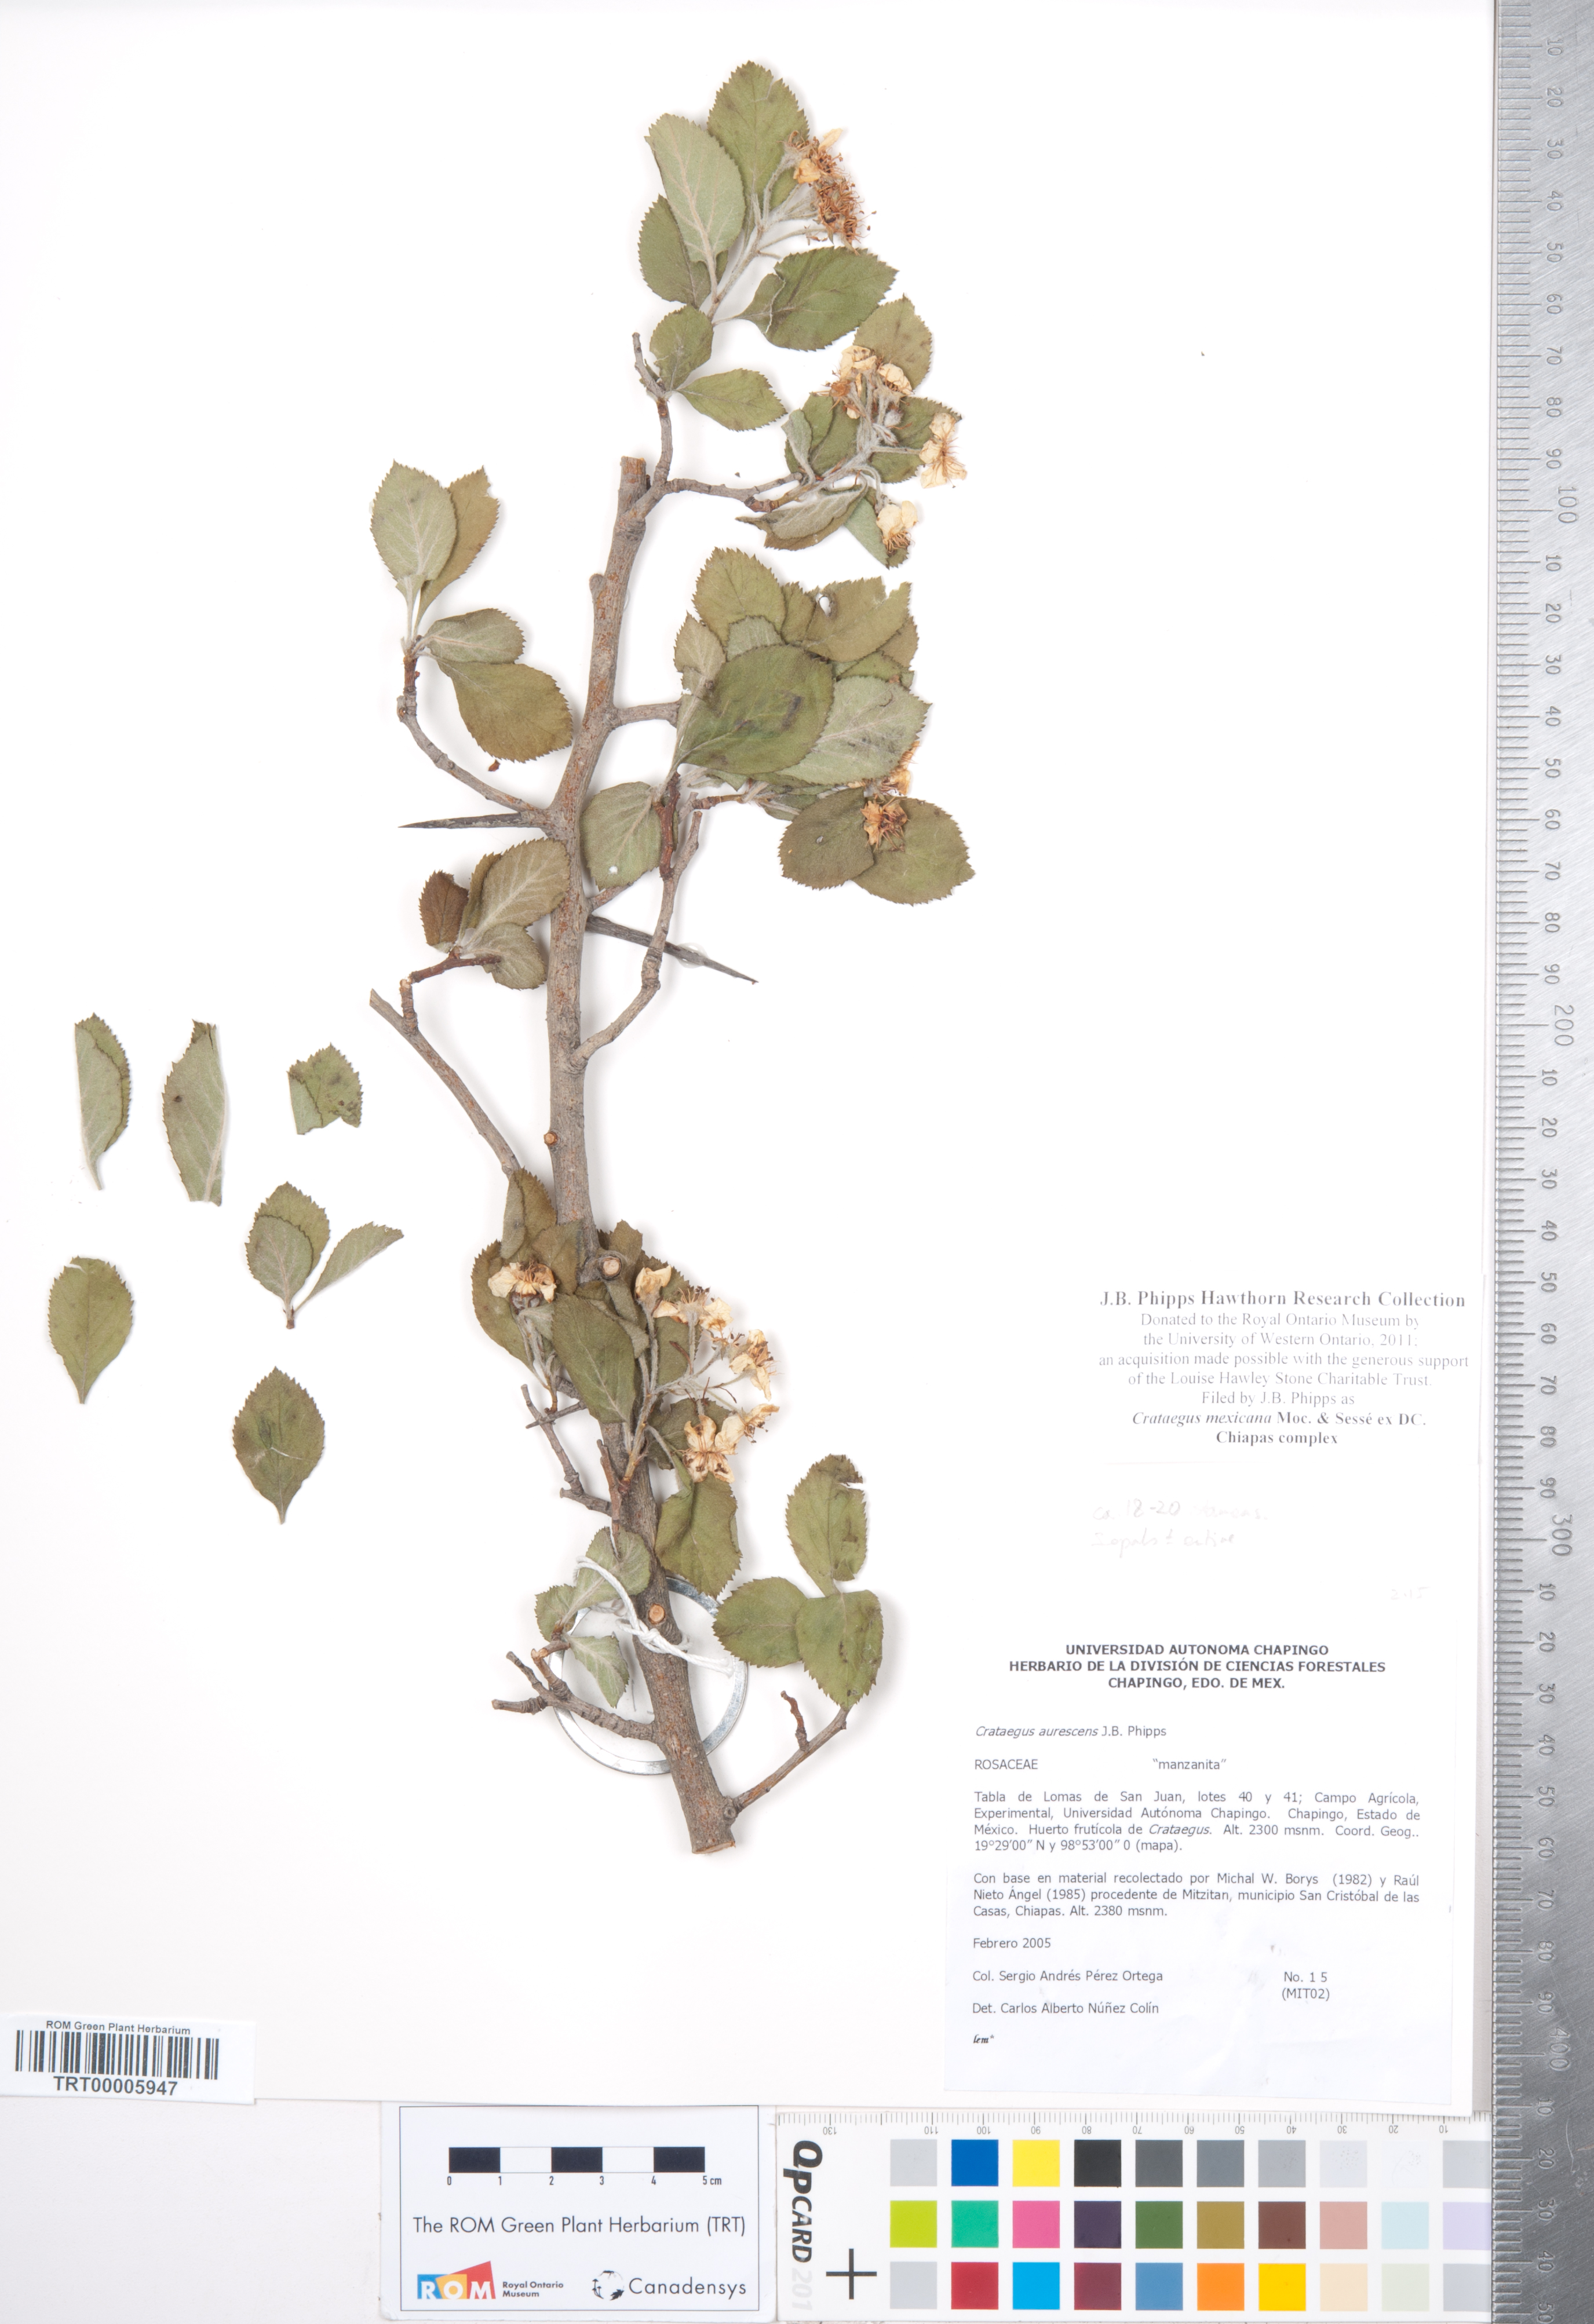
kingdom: Plantae
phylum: Tracheophyta
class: Magnoliopsida
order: Rosales
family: Rosaceae
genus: Crataegus
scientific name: Crataegus mexicana
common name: Mexican hawthorn
